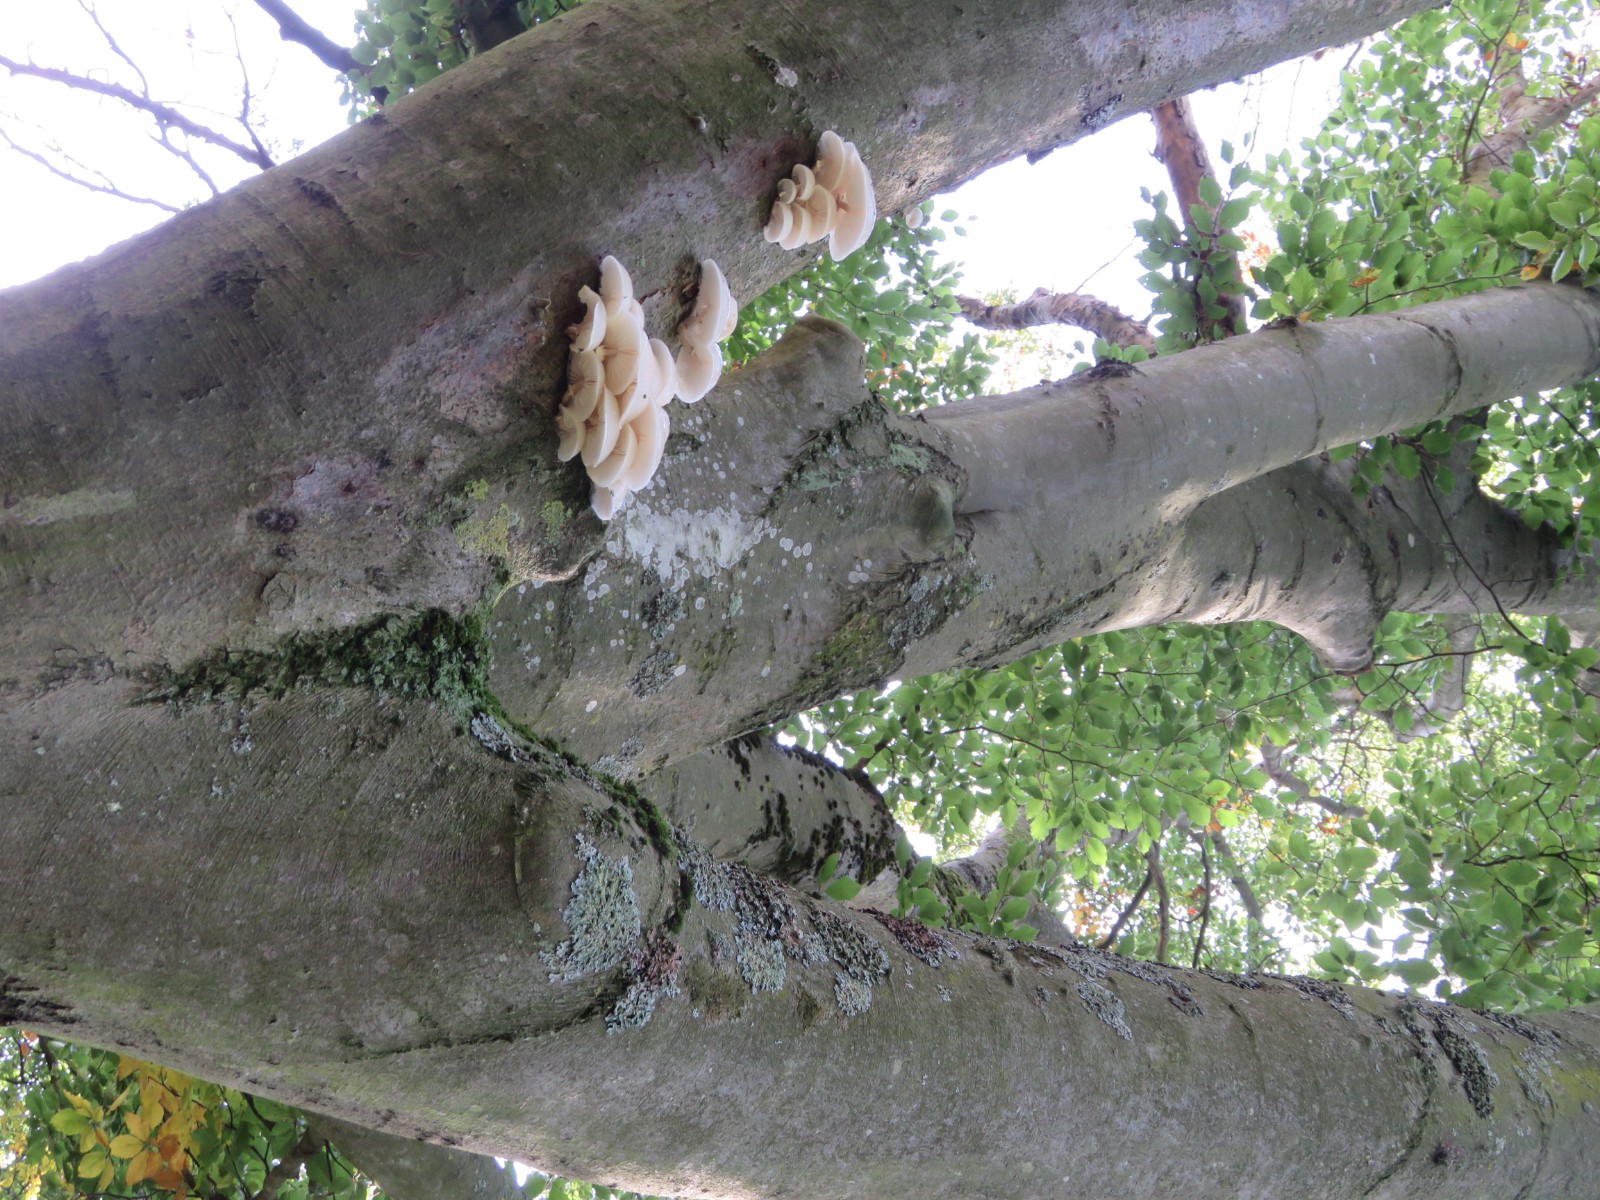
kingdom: Fungi
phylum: Basidiomycota
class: Agaricomycetes
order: Agaricales
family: Physalacriaceae
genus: Mucidula
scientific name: Mucidula mucida
